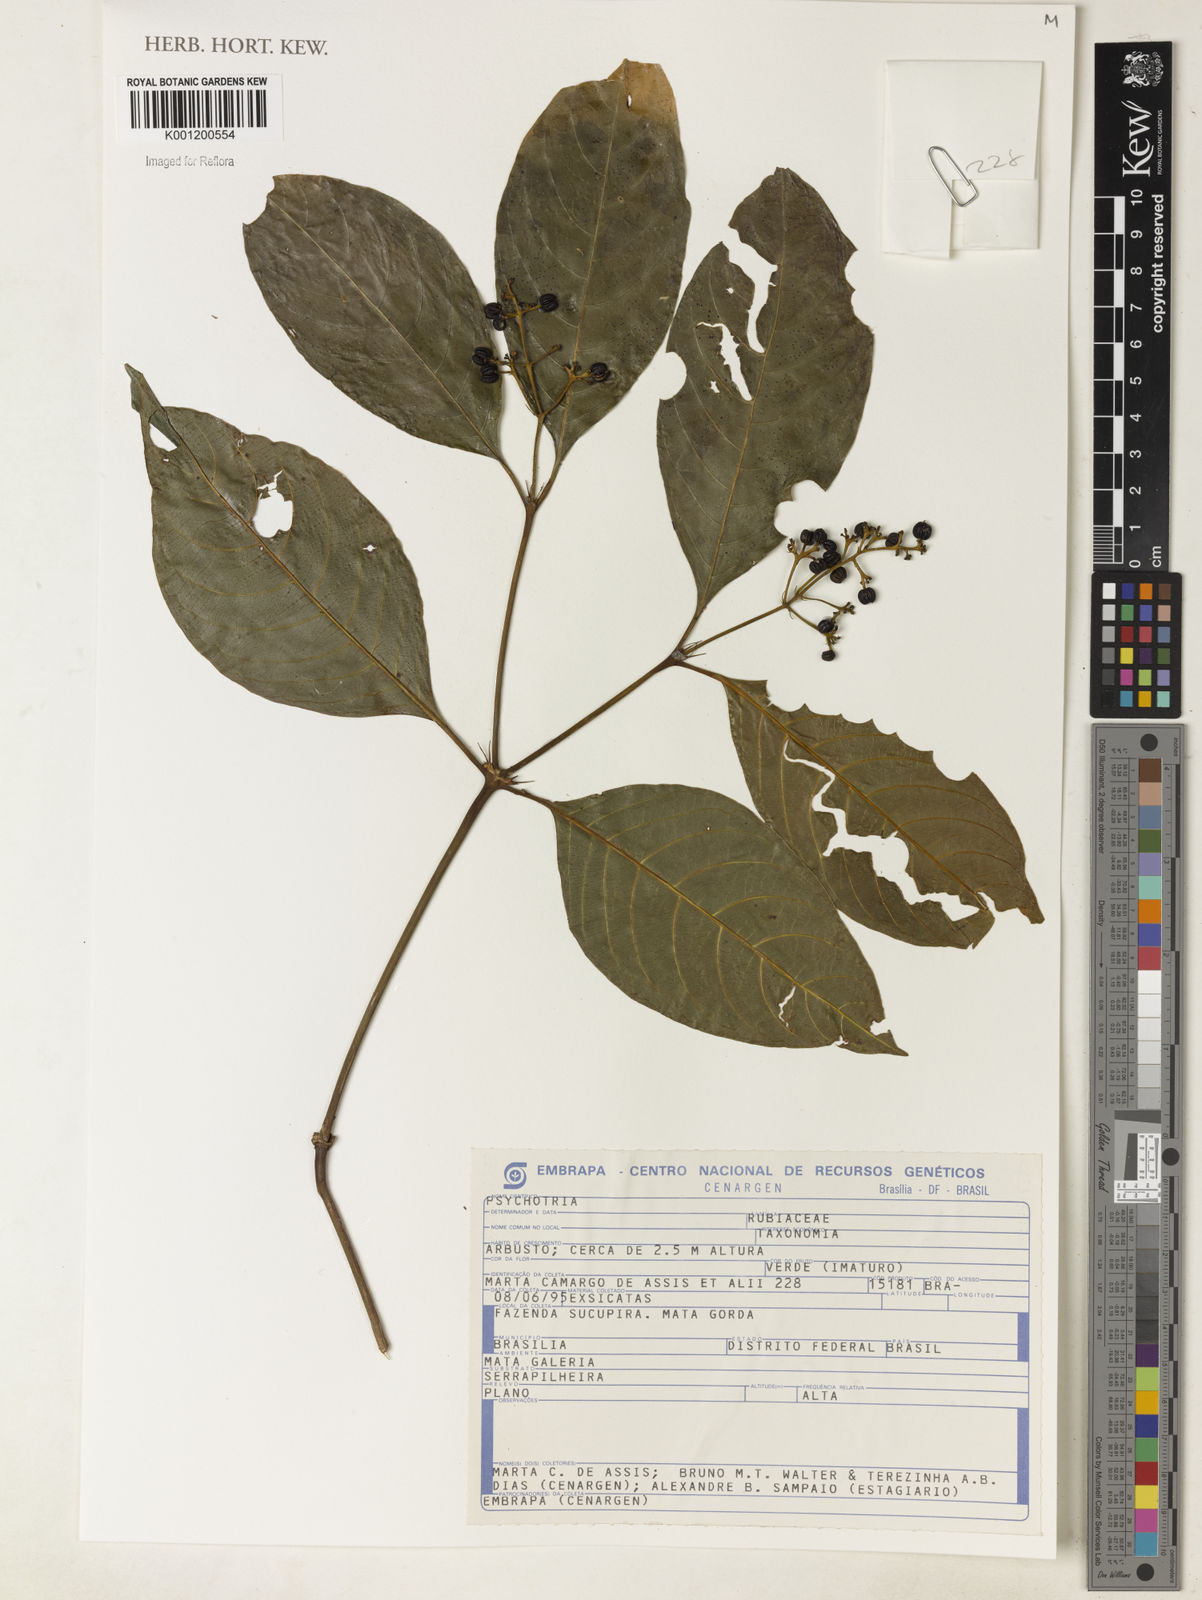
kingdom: Plantae
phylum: Tracheophyta
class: Magnoliopsida
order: Gentianales
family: Rubiaceae
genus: Psychotria
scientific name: Psychotria
